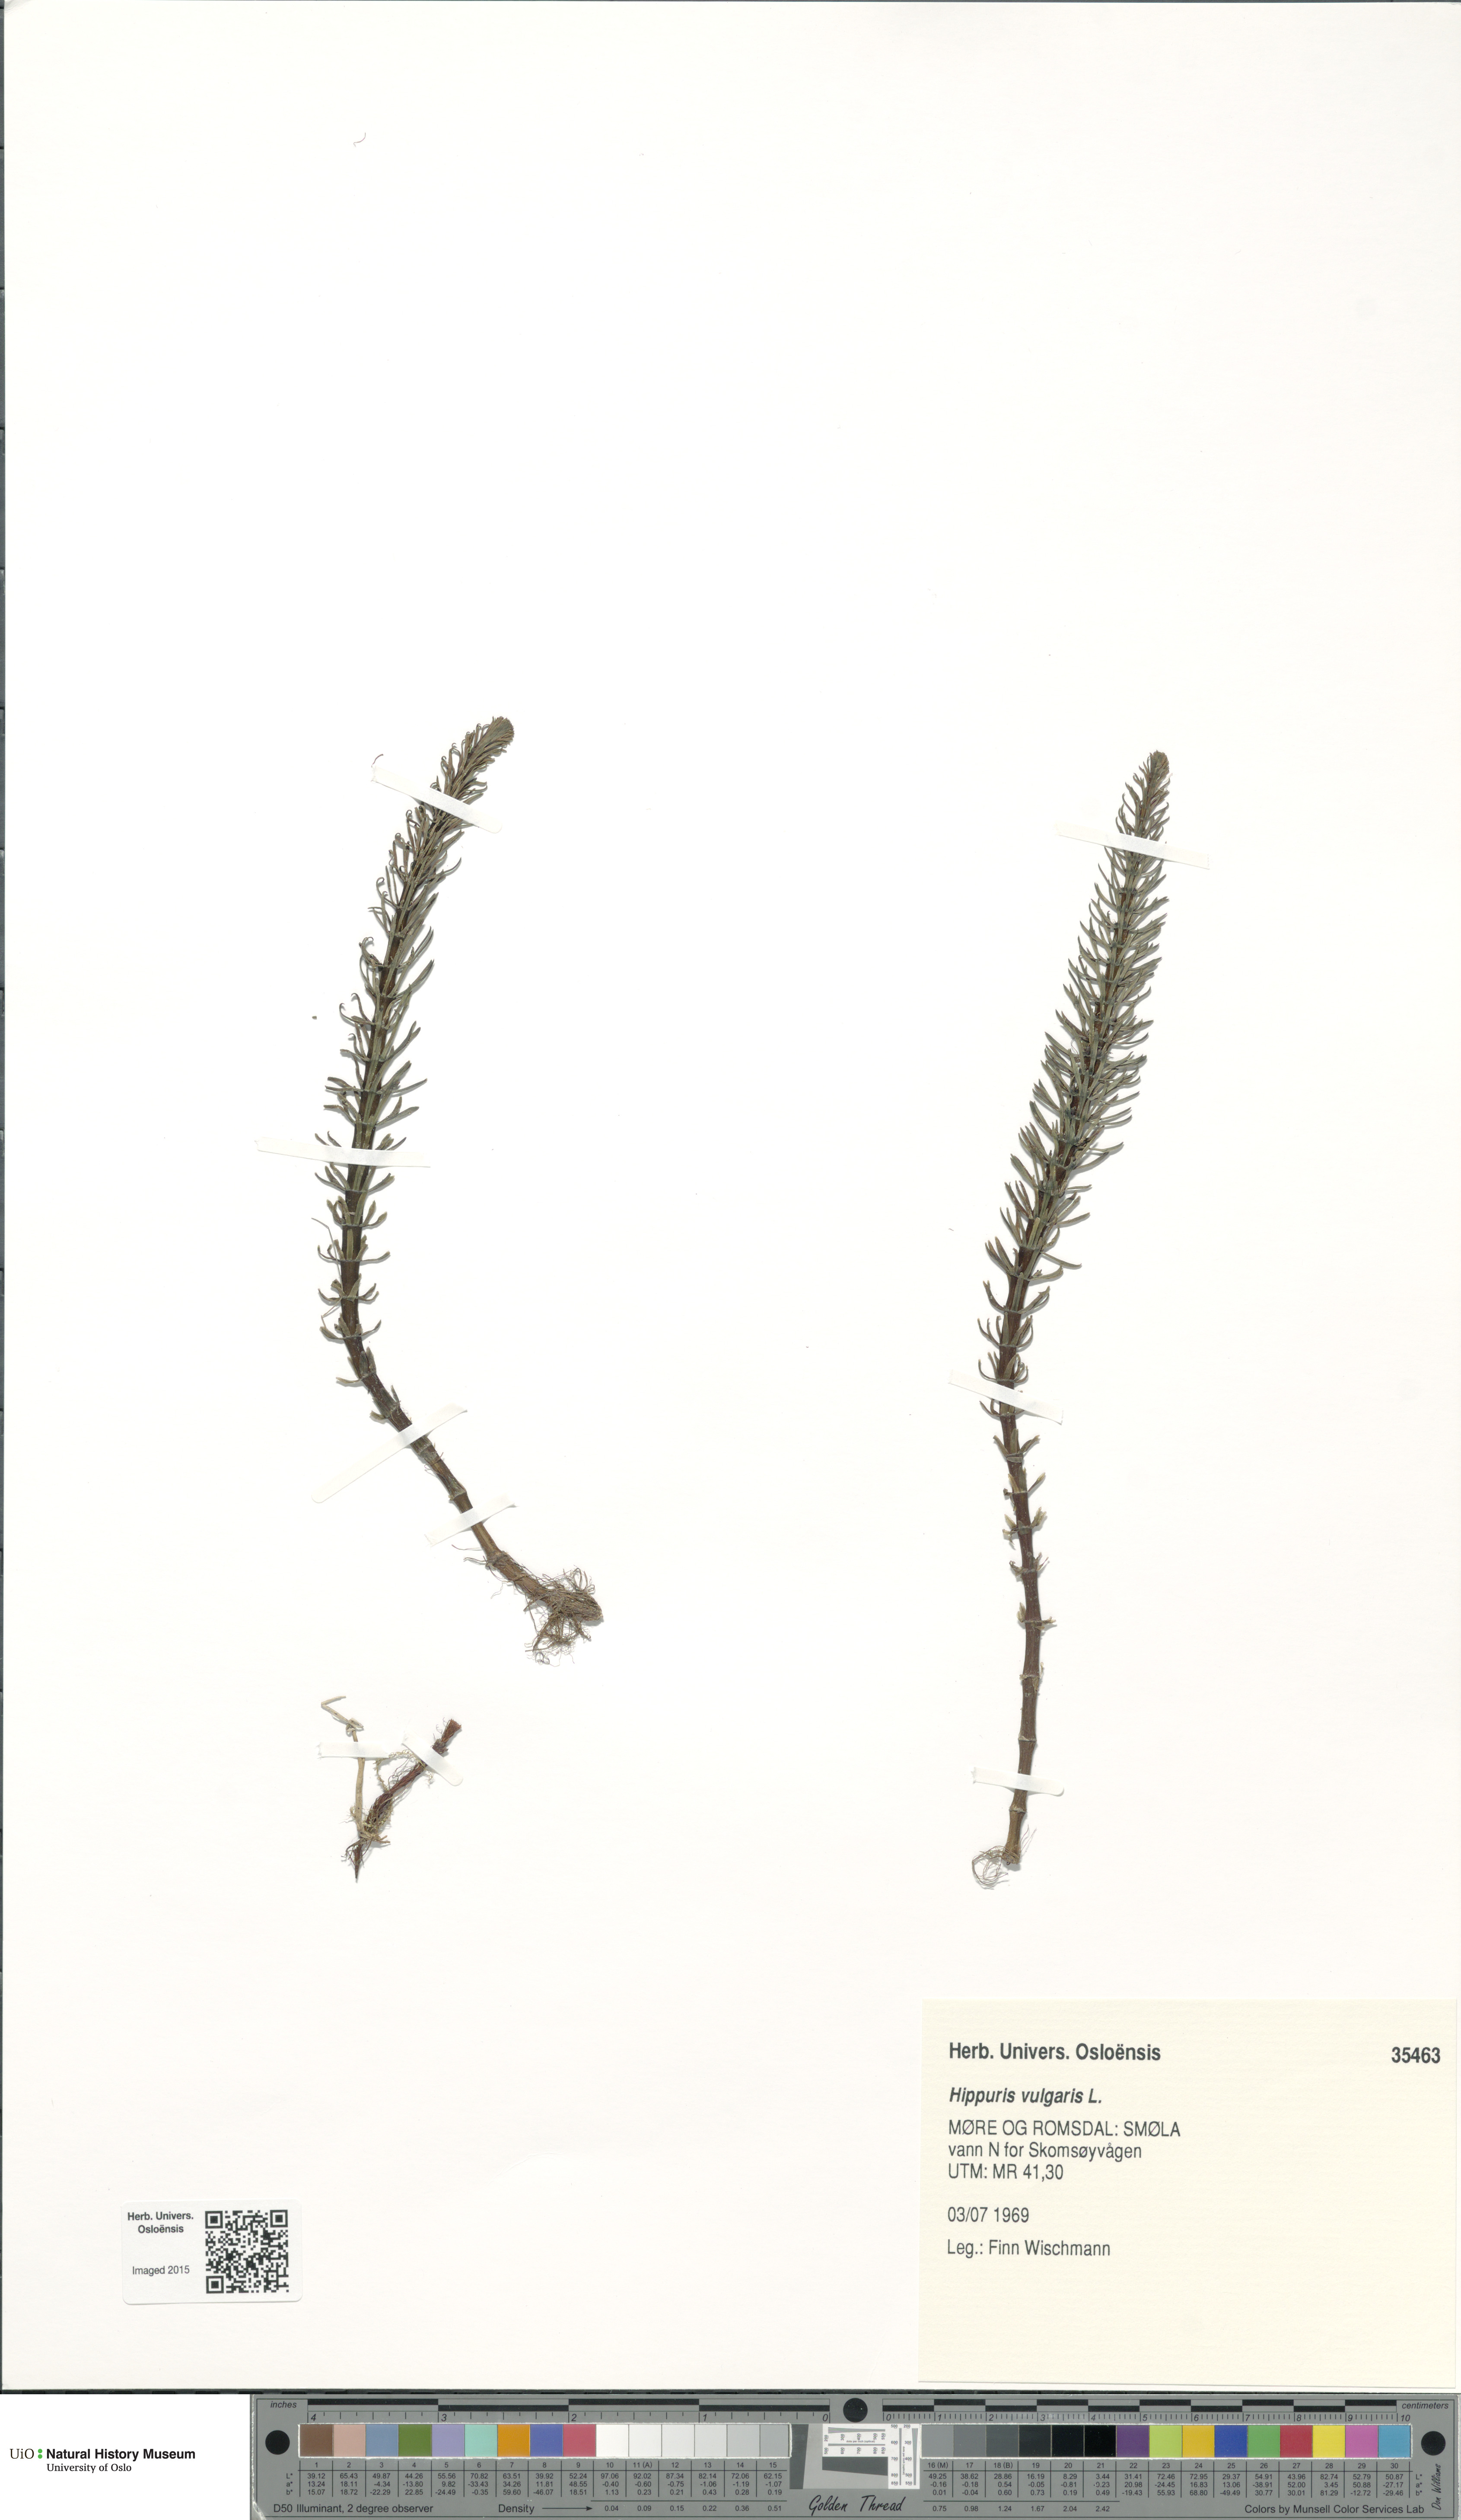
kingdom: Plantae
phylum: Tracheophyta
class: Magnoliopsida
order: Lamiales
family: Plantaginaceae
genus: Hippuris
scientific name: Hippuris vulgaris
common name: Mare's-tail
